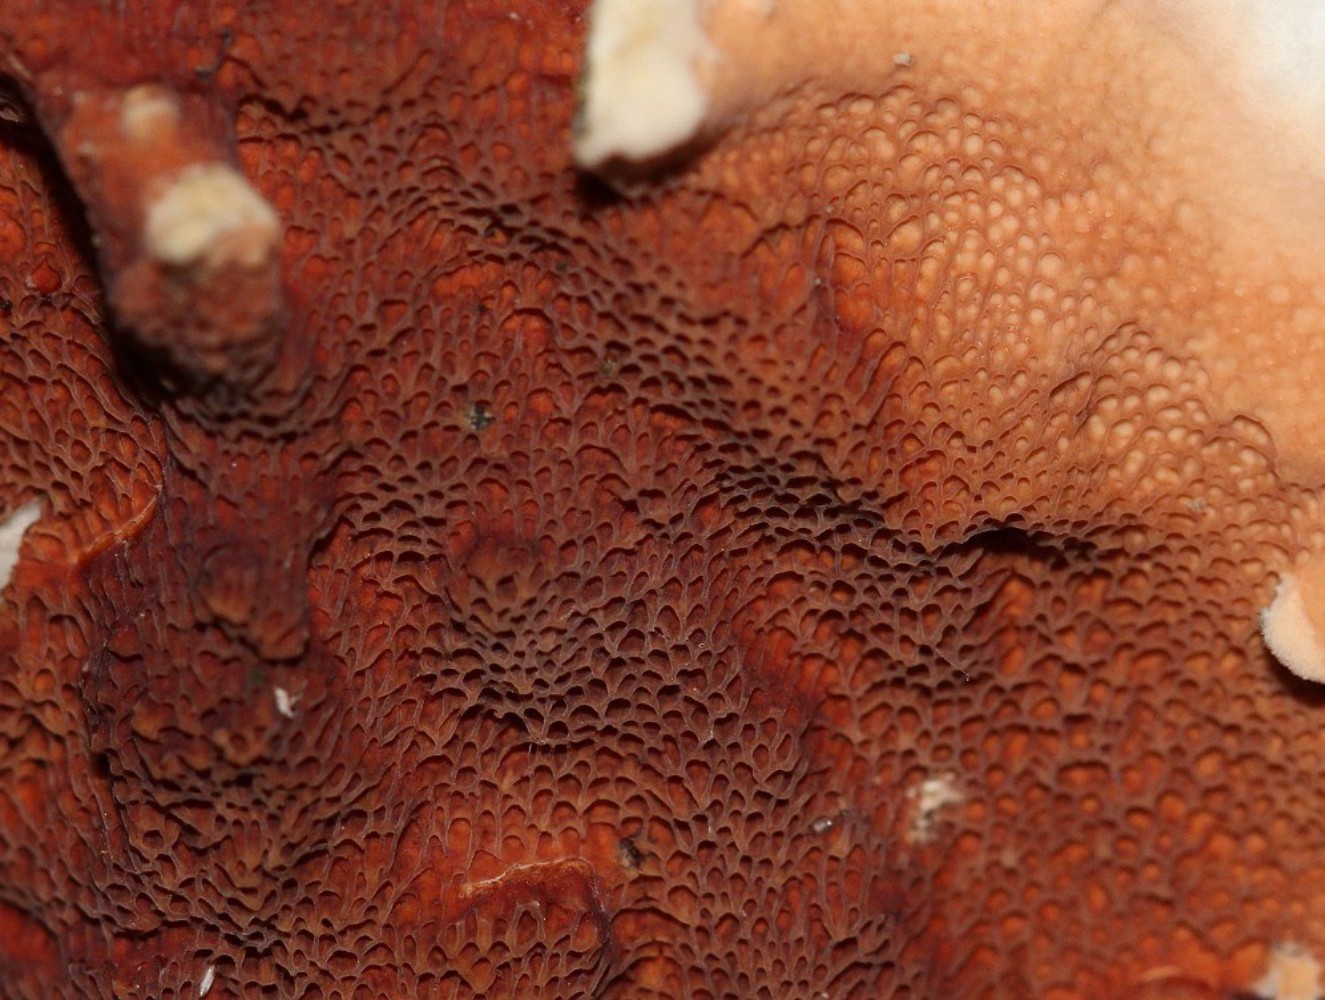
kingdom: Fungi
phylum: Basidiomycota
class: Agaricomycetes
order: Polyporales
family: Irpicaceae
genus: Meruliopsis
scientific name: Meruliopsis taxicola
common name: purpurbrun foldporesvamp
